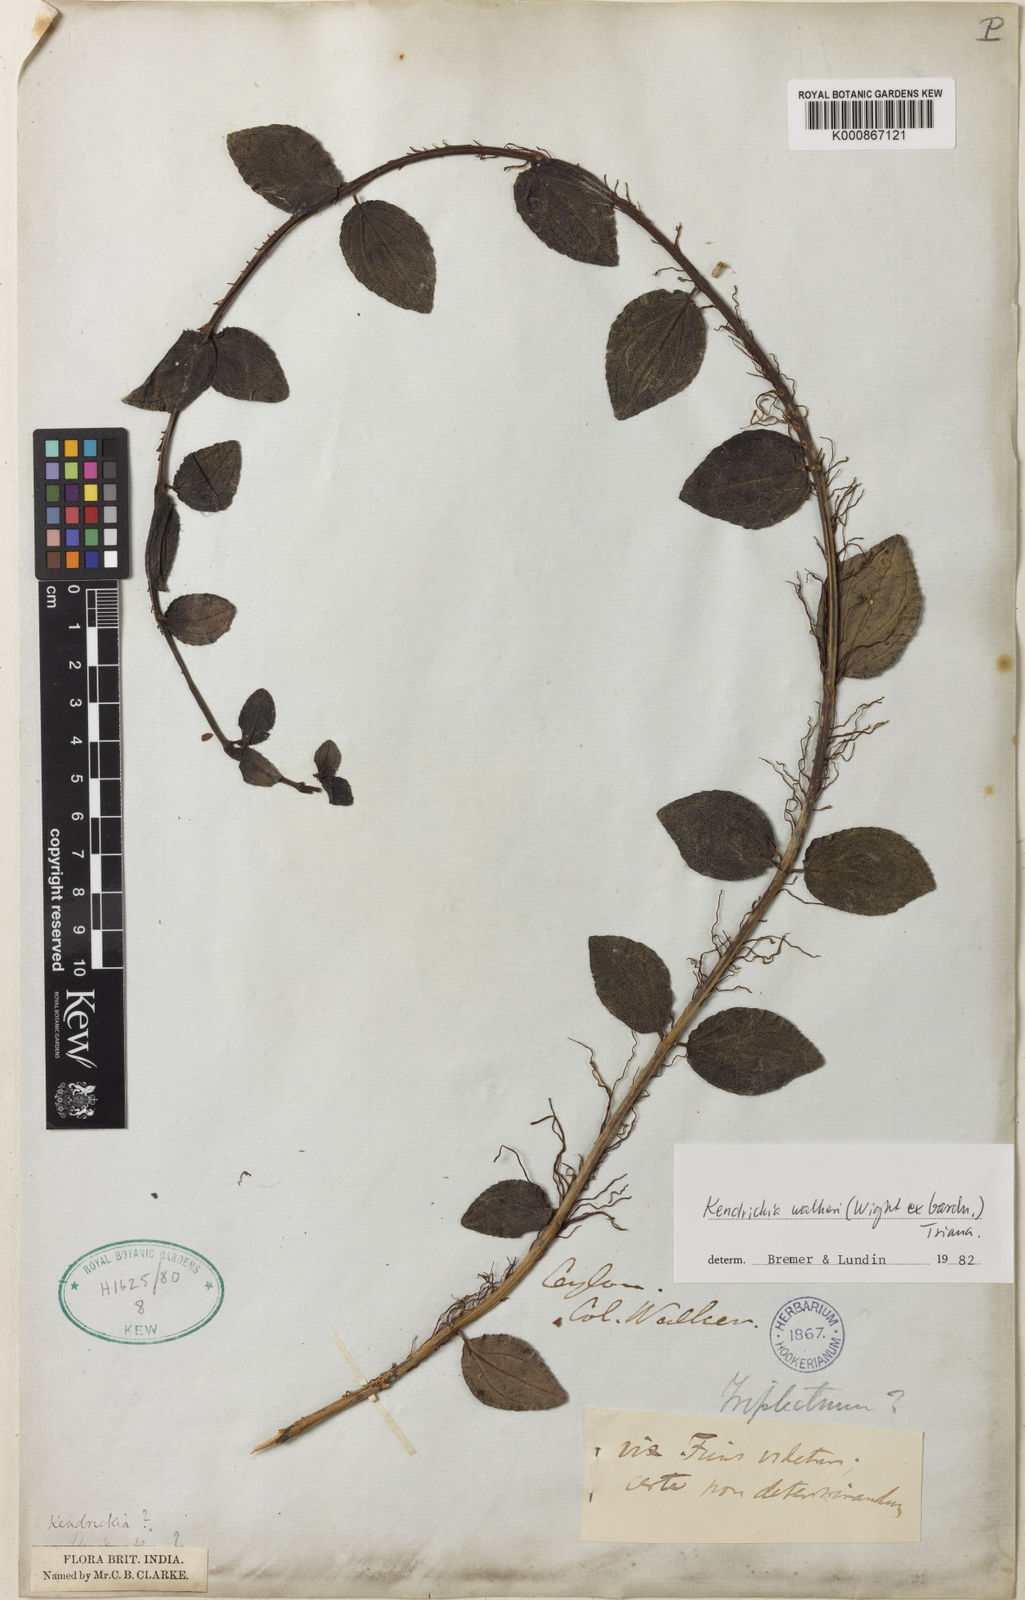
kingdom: Plantae
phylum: Tracheophyta
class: Magnoliopsida
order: Fabales
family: Fabaceae
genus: Mimosa
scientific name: Mimosa gracilis
